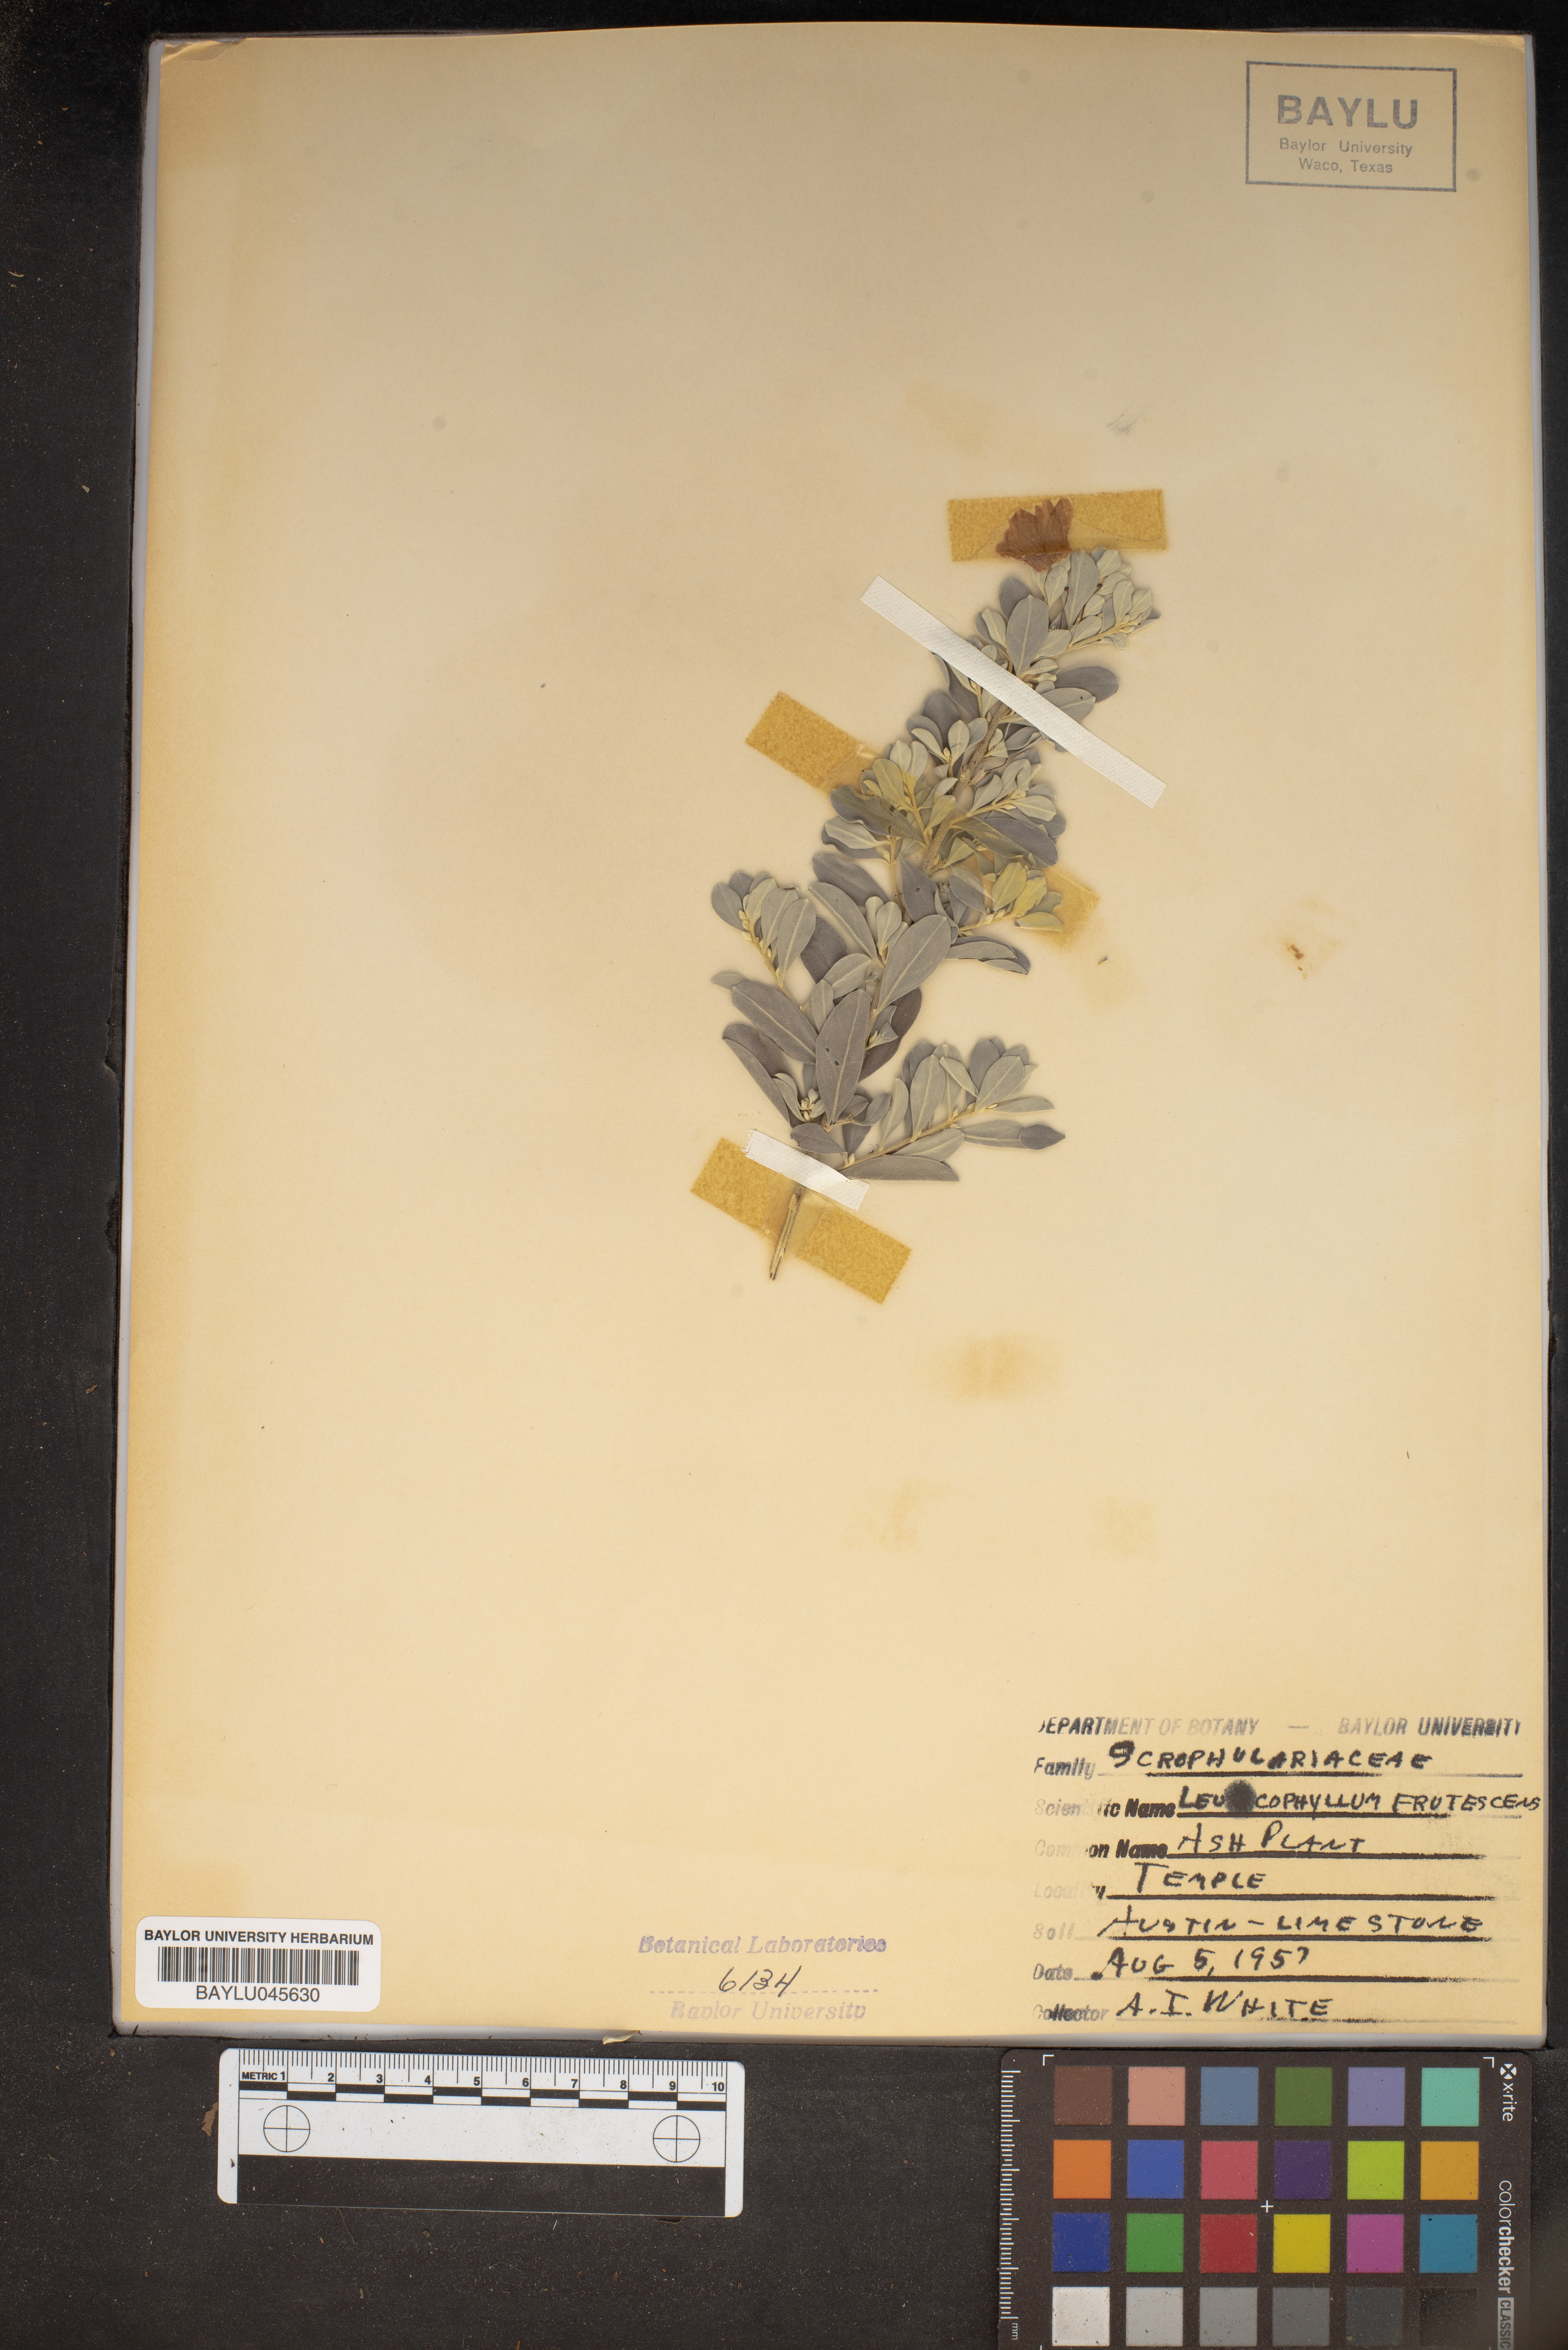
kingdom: Plantae
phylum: Tracheophyta
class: Magnoliopsida
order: Lamiales
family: Scrophulariaceae
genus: Leucophyllum
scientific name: Leucophyllum frutescens
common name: Texas silverleaf
